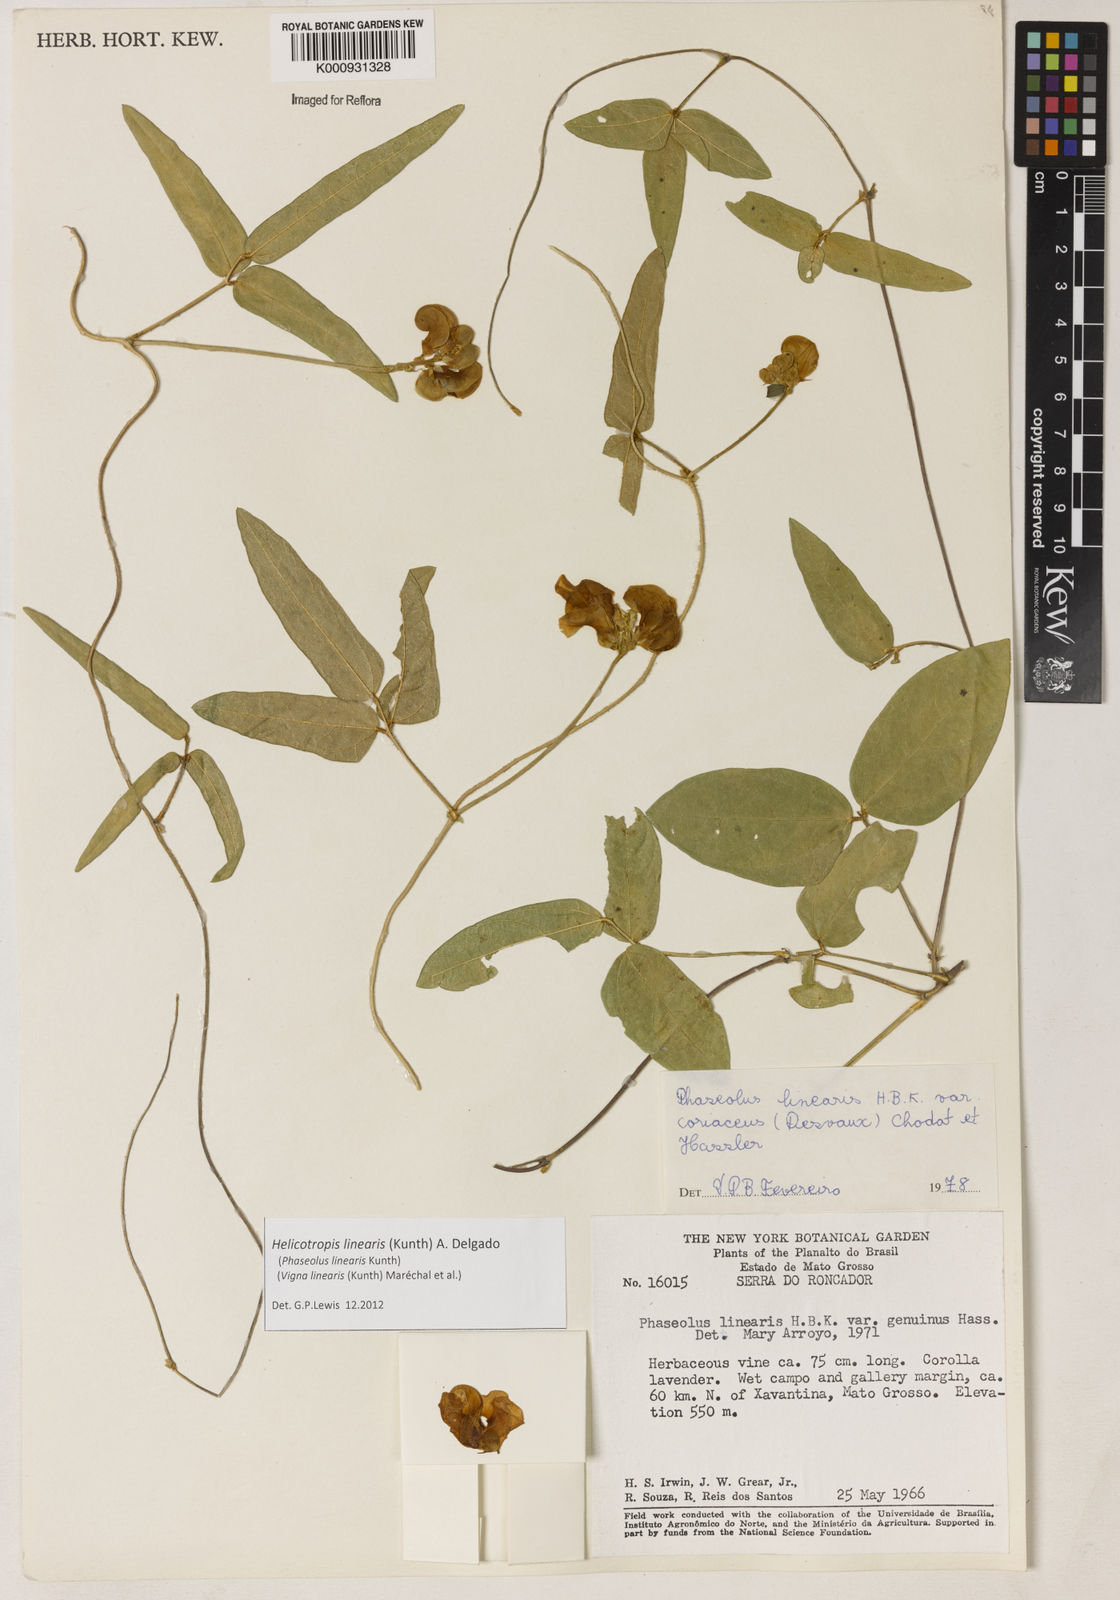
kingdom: Plantae
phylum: Tracheophyta
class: Magnoliopsida
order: Fabales
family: Fabaceae
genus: Helicotropis
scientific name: Helicotropis linearis
